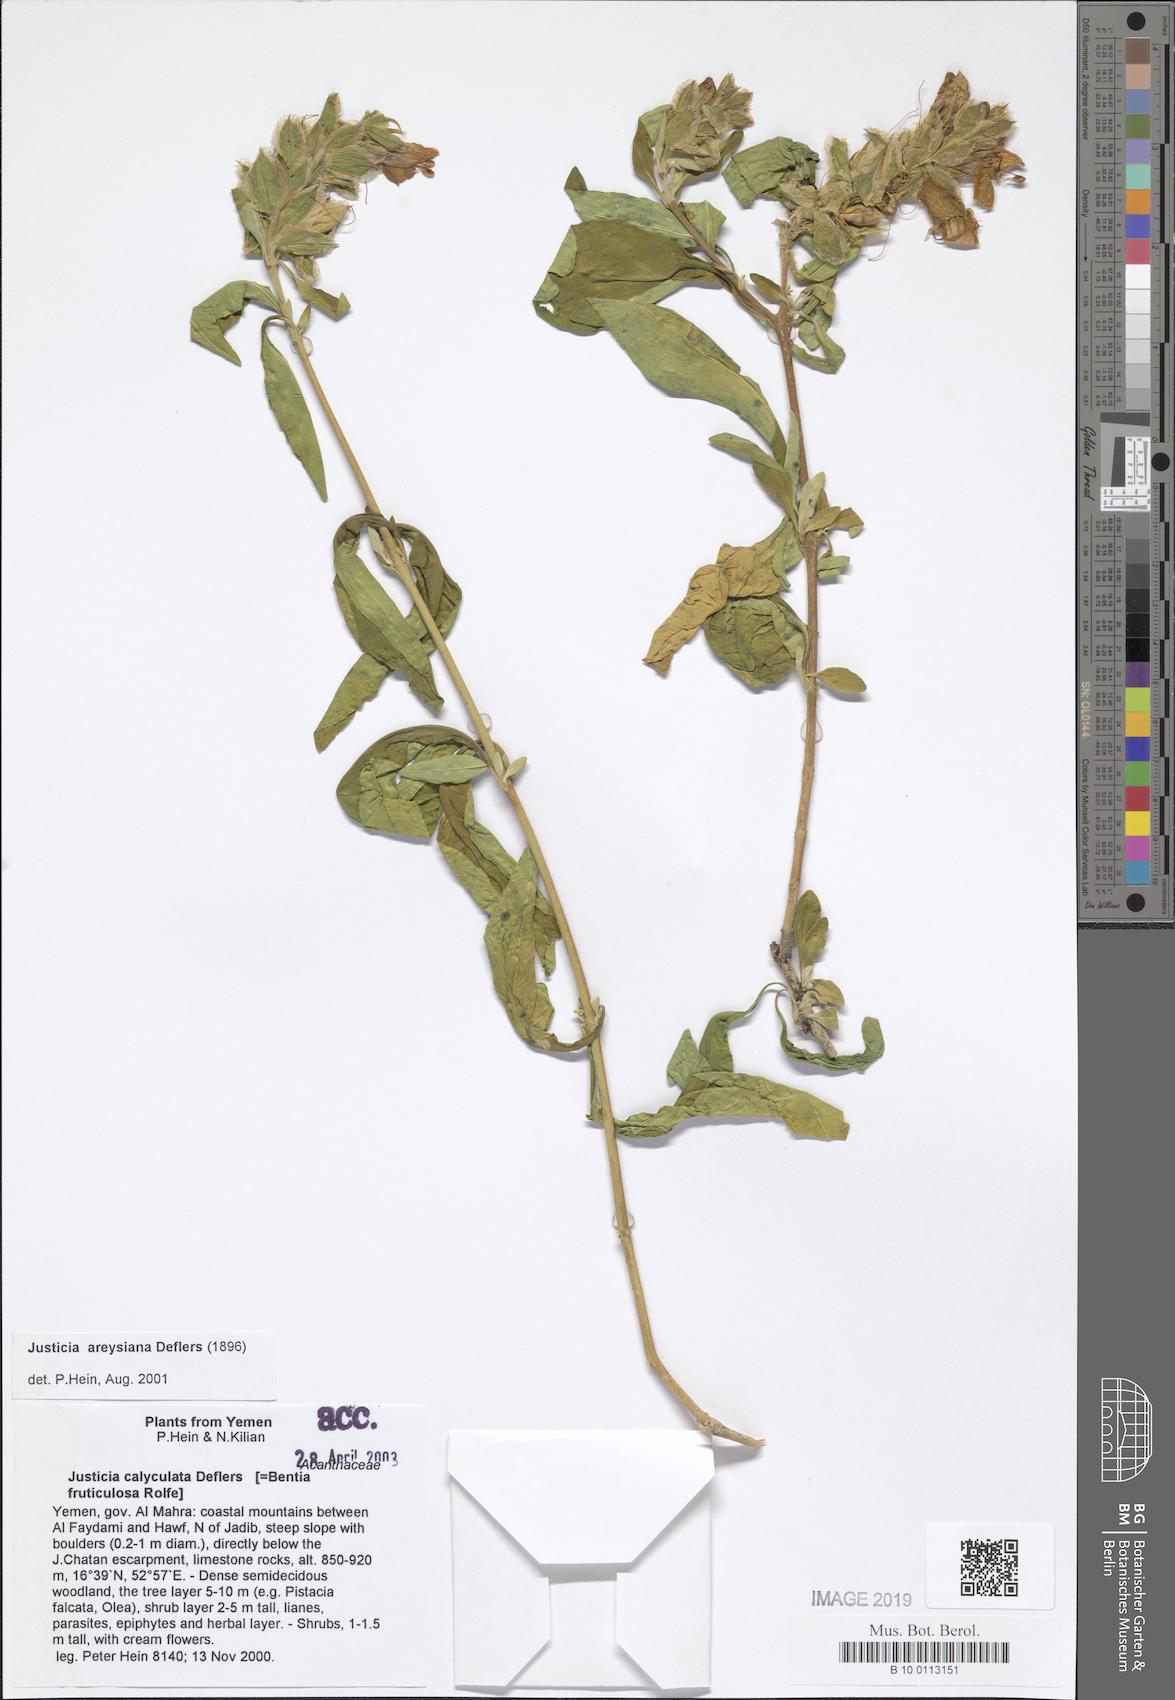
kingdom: Plantae
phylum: Tracheophyta
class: Magnoliopsida
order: Lamiales
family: Acanthaceae
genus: Justicia
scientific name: Justicia areysiana
